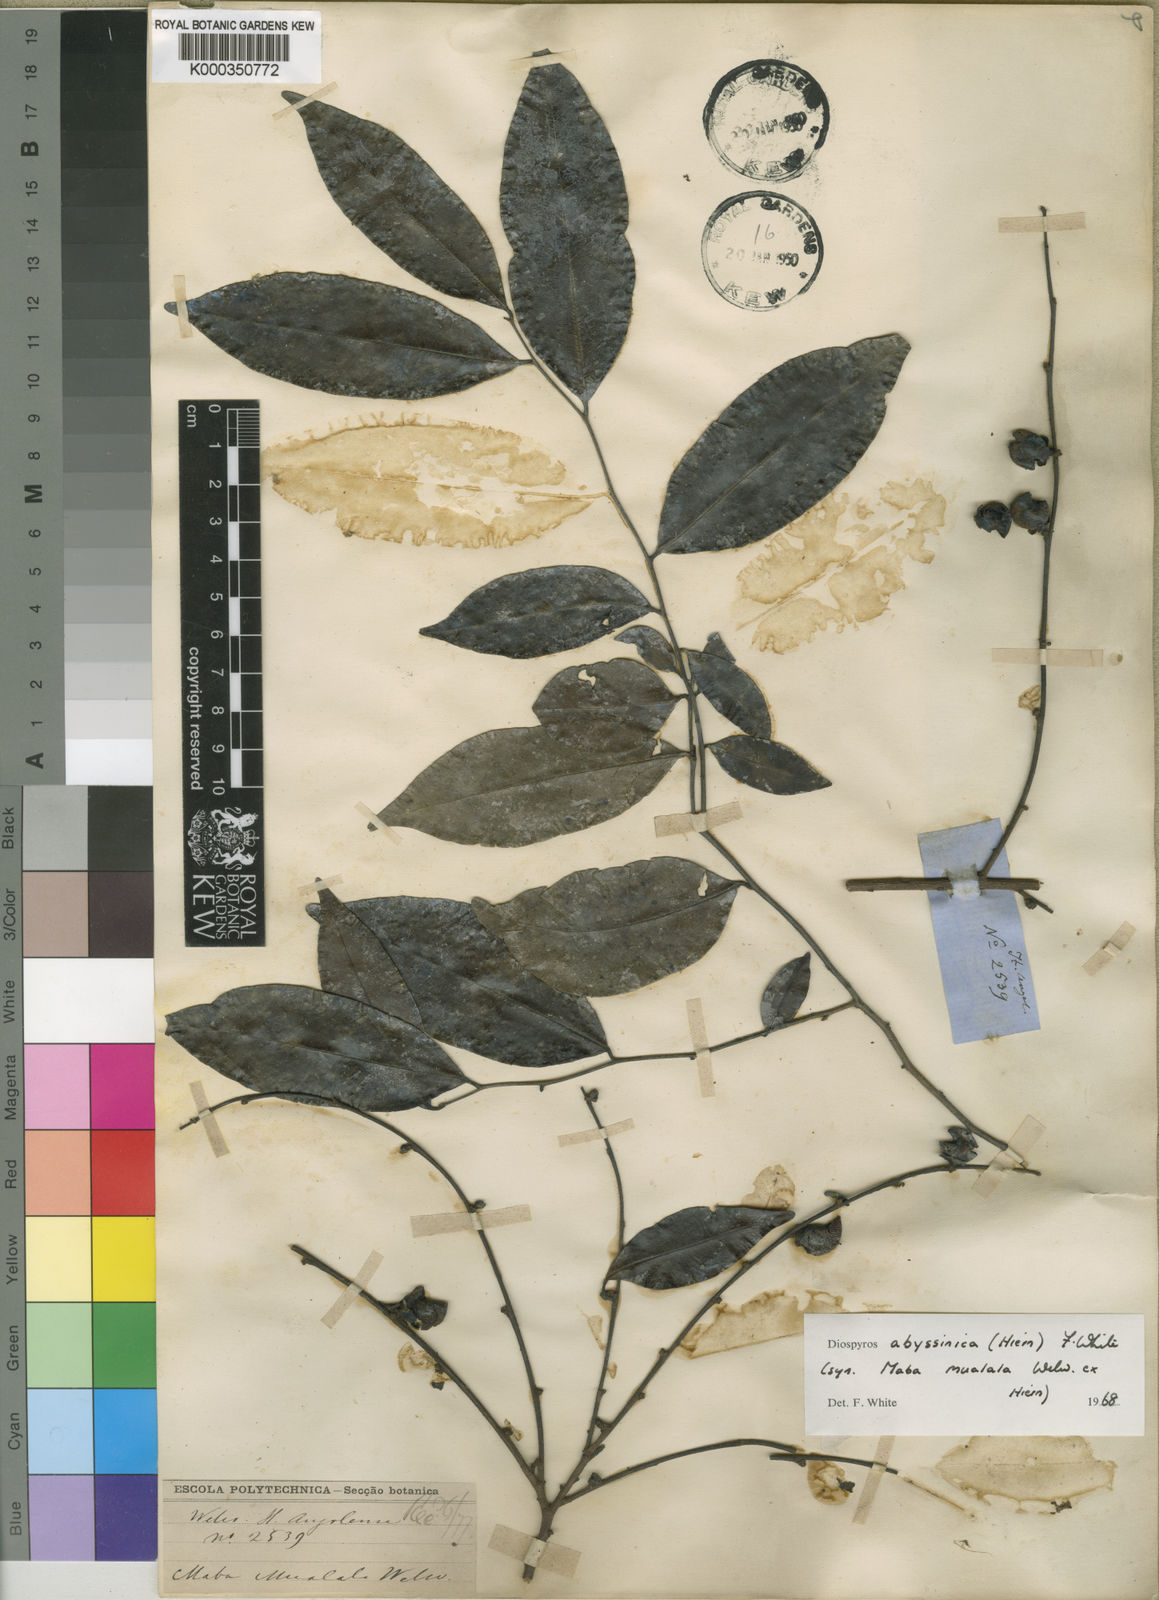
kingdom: Plantae
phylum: Tracheophyta
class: Magnoliopsida
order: Ericales
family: Ebenaceae
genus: Diospyros
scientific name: Diospyros abyssinica
